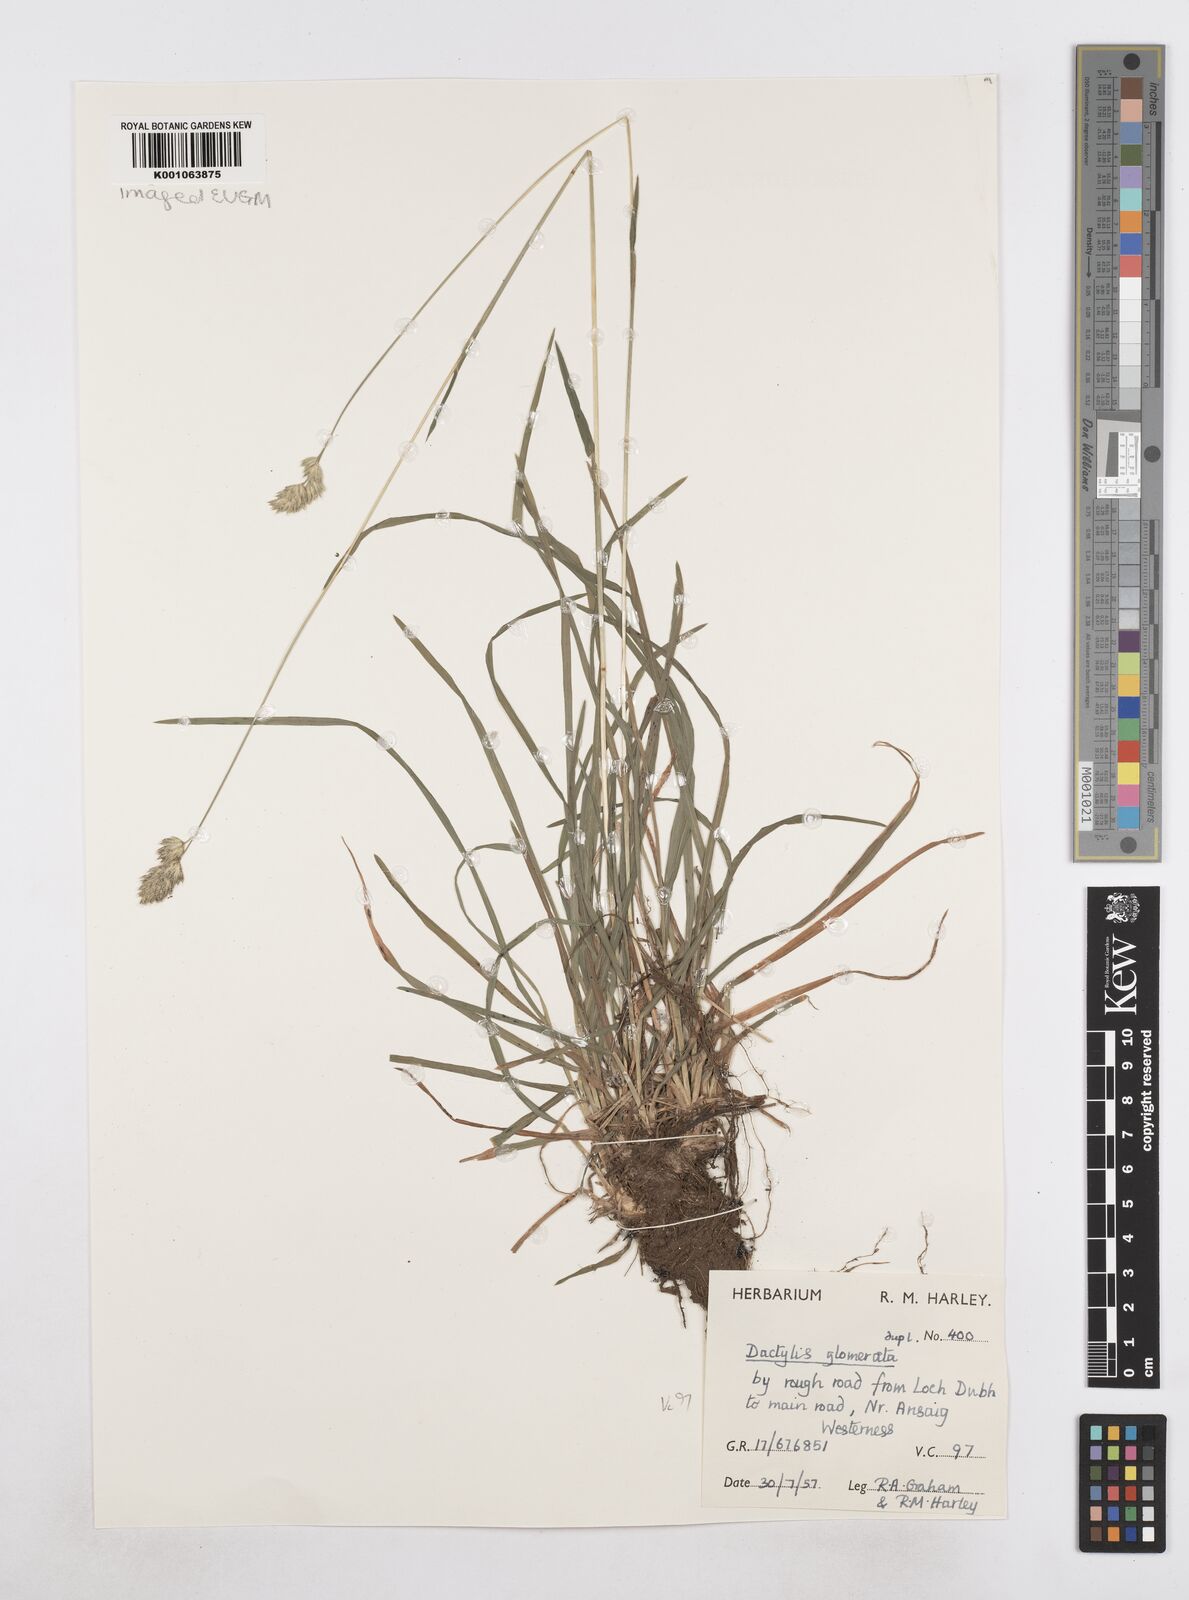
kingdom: Plantae
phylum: Tracheophyta
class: Liliopsida
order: Poales
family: Poaceae
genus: Dactylis
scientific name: Dactylis glomerata
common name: Orchardgrass
